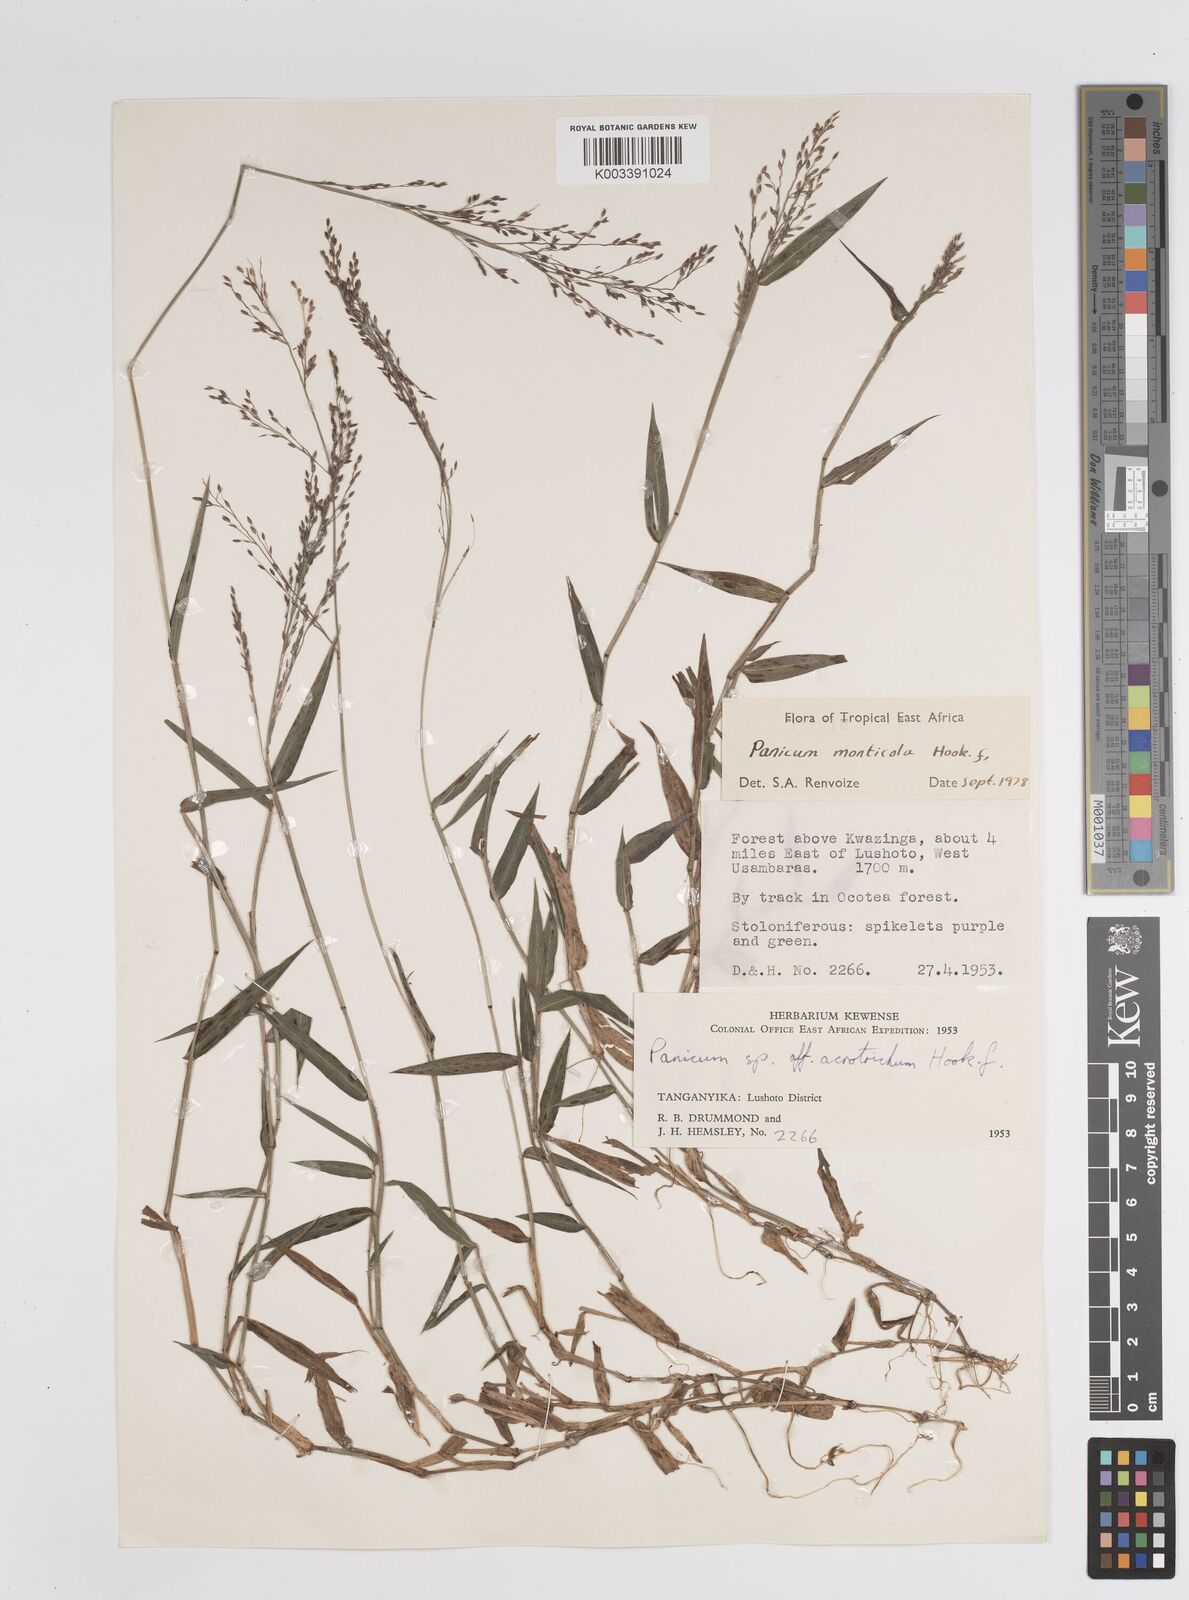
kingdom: Plantae
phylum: Tracheophyta
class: Liliopsida
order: Poales
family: Poaceae
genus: Panicum
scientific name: Panicum monticola
